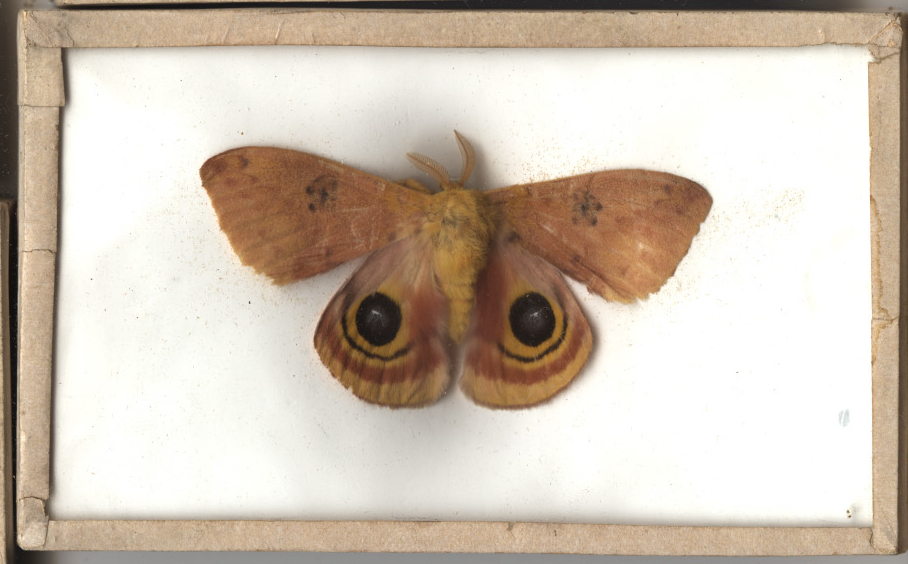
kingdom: Animalia
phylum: Arthropoda
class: Insecta
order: Lepidoptera
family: Saturniidae
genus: Automeris
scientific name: Automeris io
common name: Io Moth
